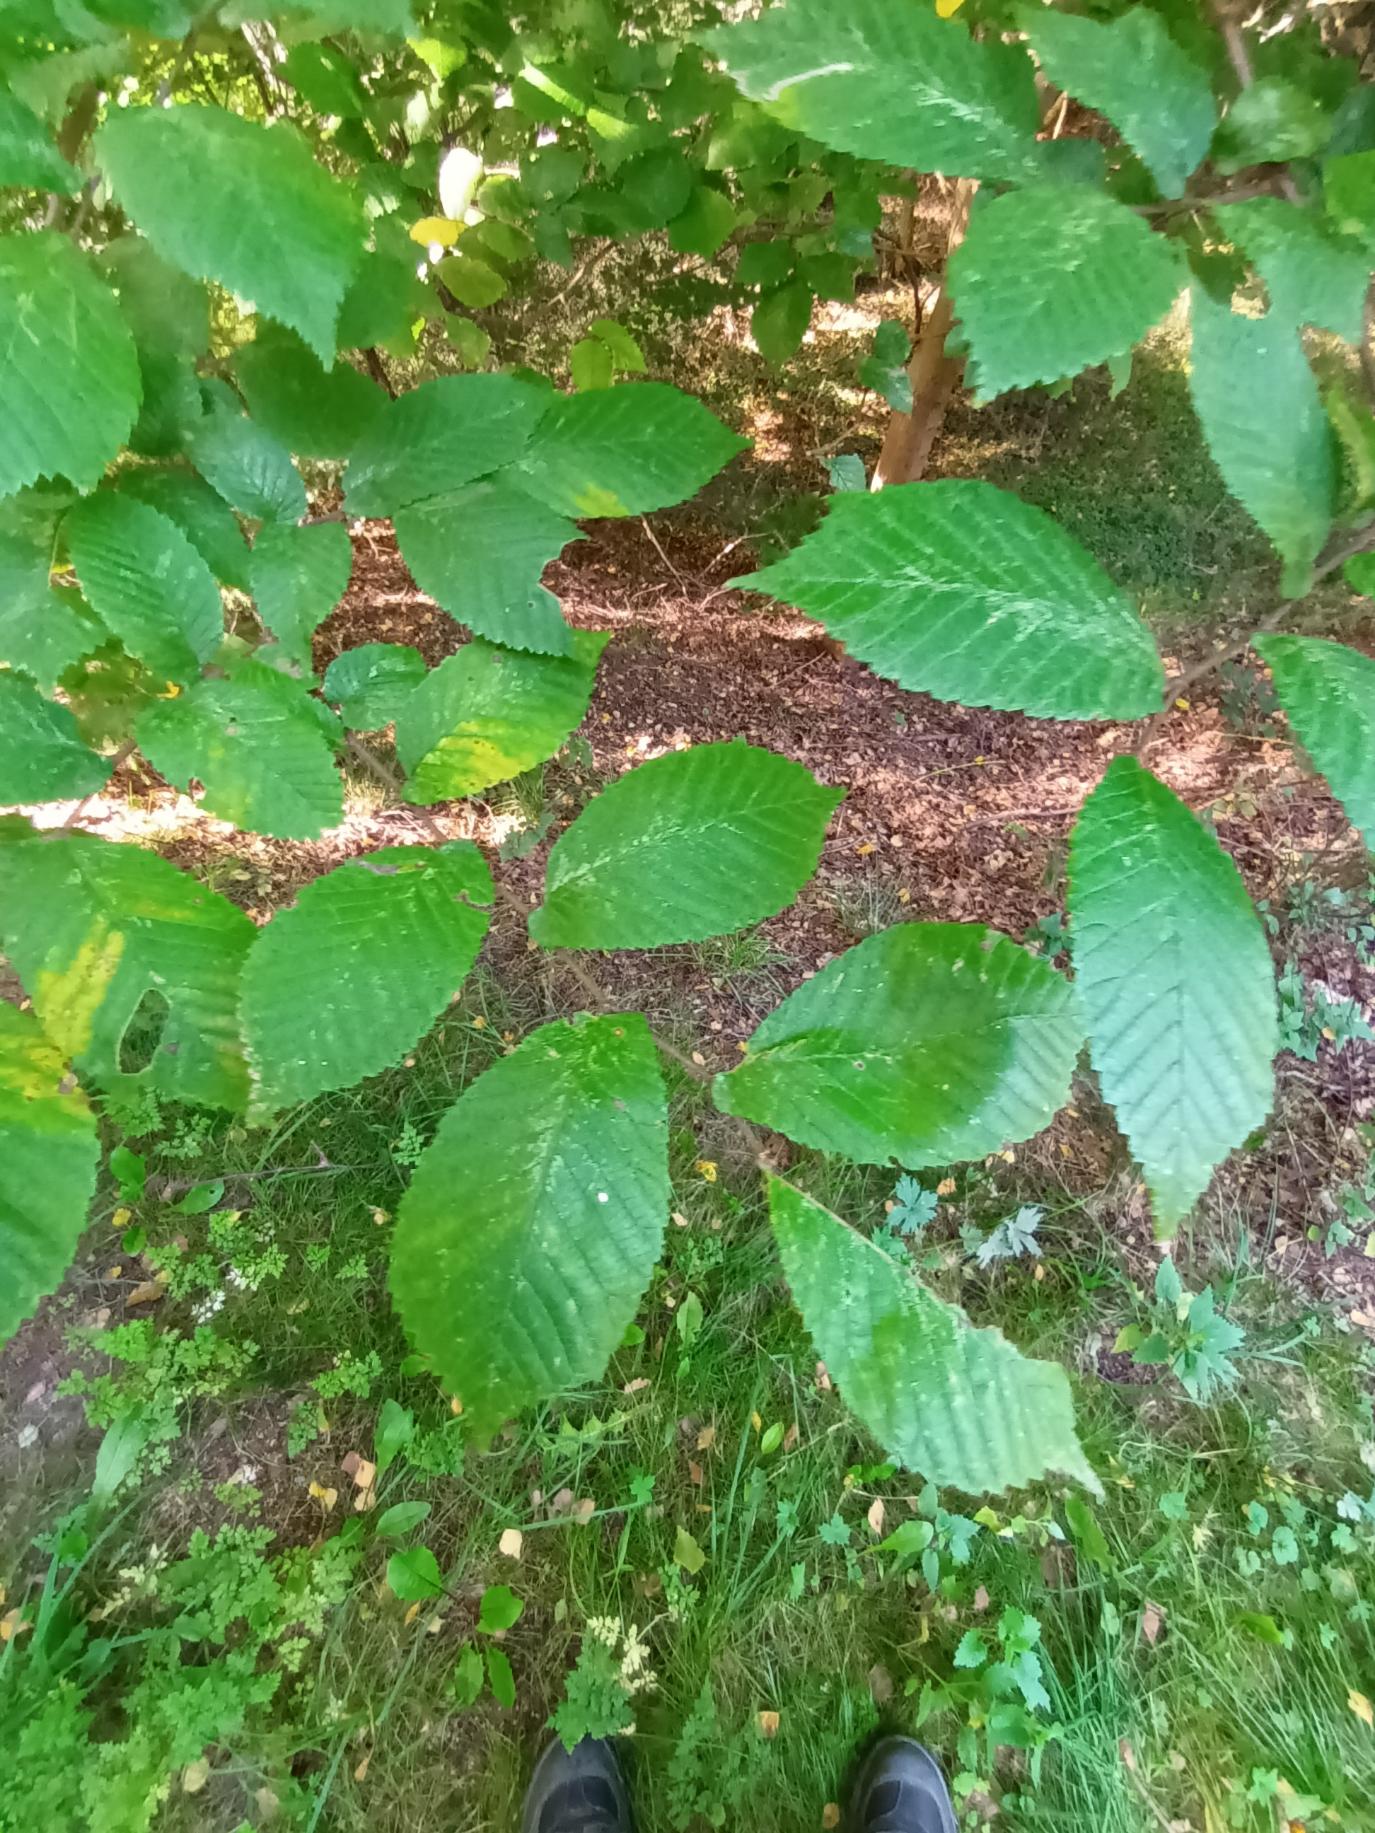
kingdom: Plantae
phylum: Tracheophyta
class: Magnoliopsida
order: Rosales
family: Ulmaceae
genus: Ulmus
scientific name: Ulmus glabra
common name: Skov-elm/storbladet elm
